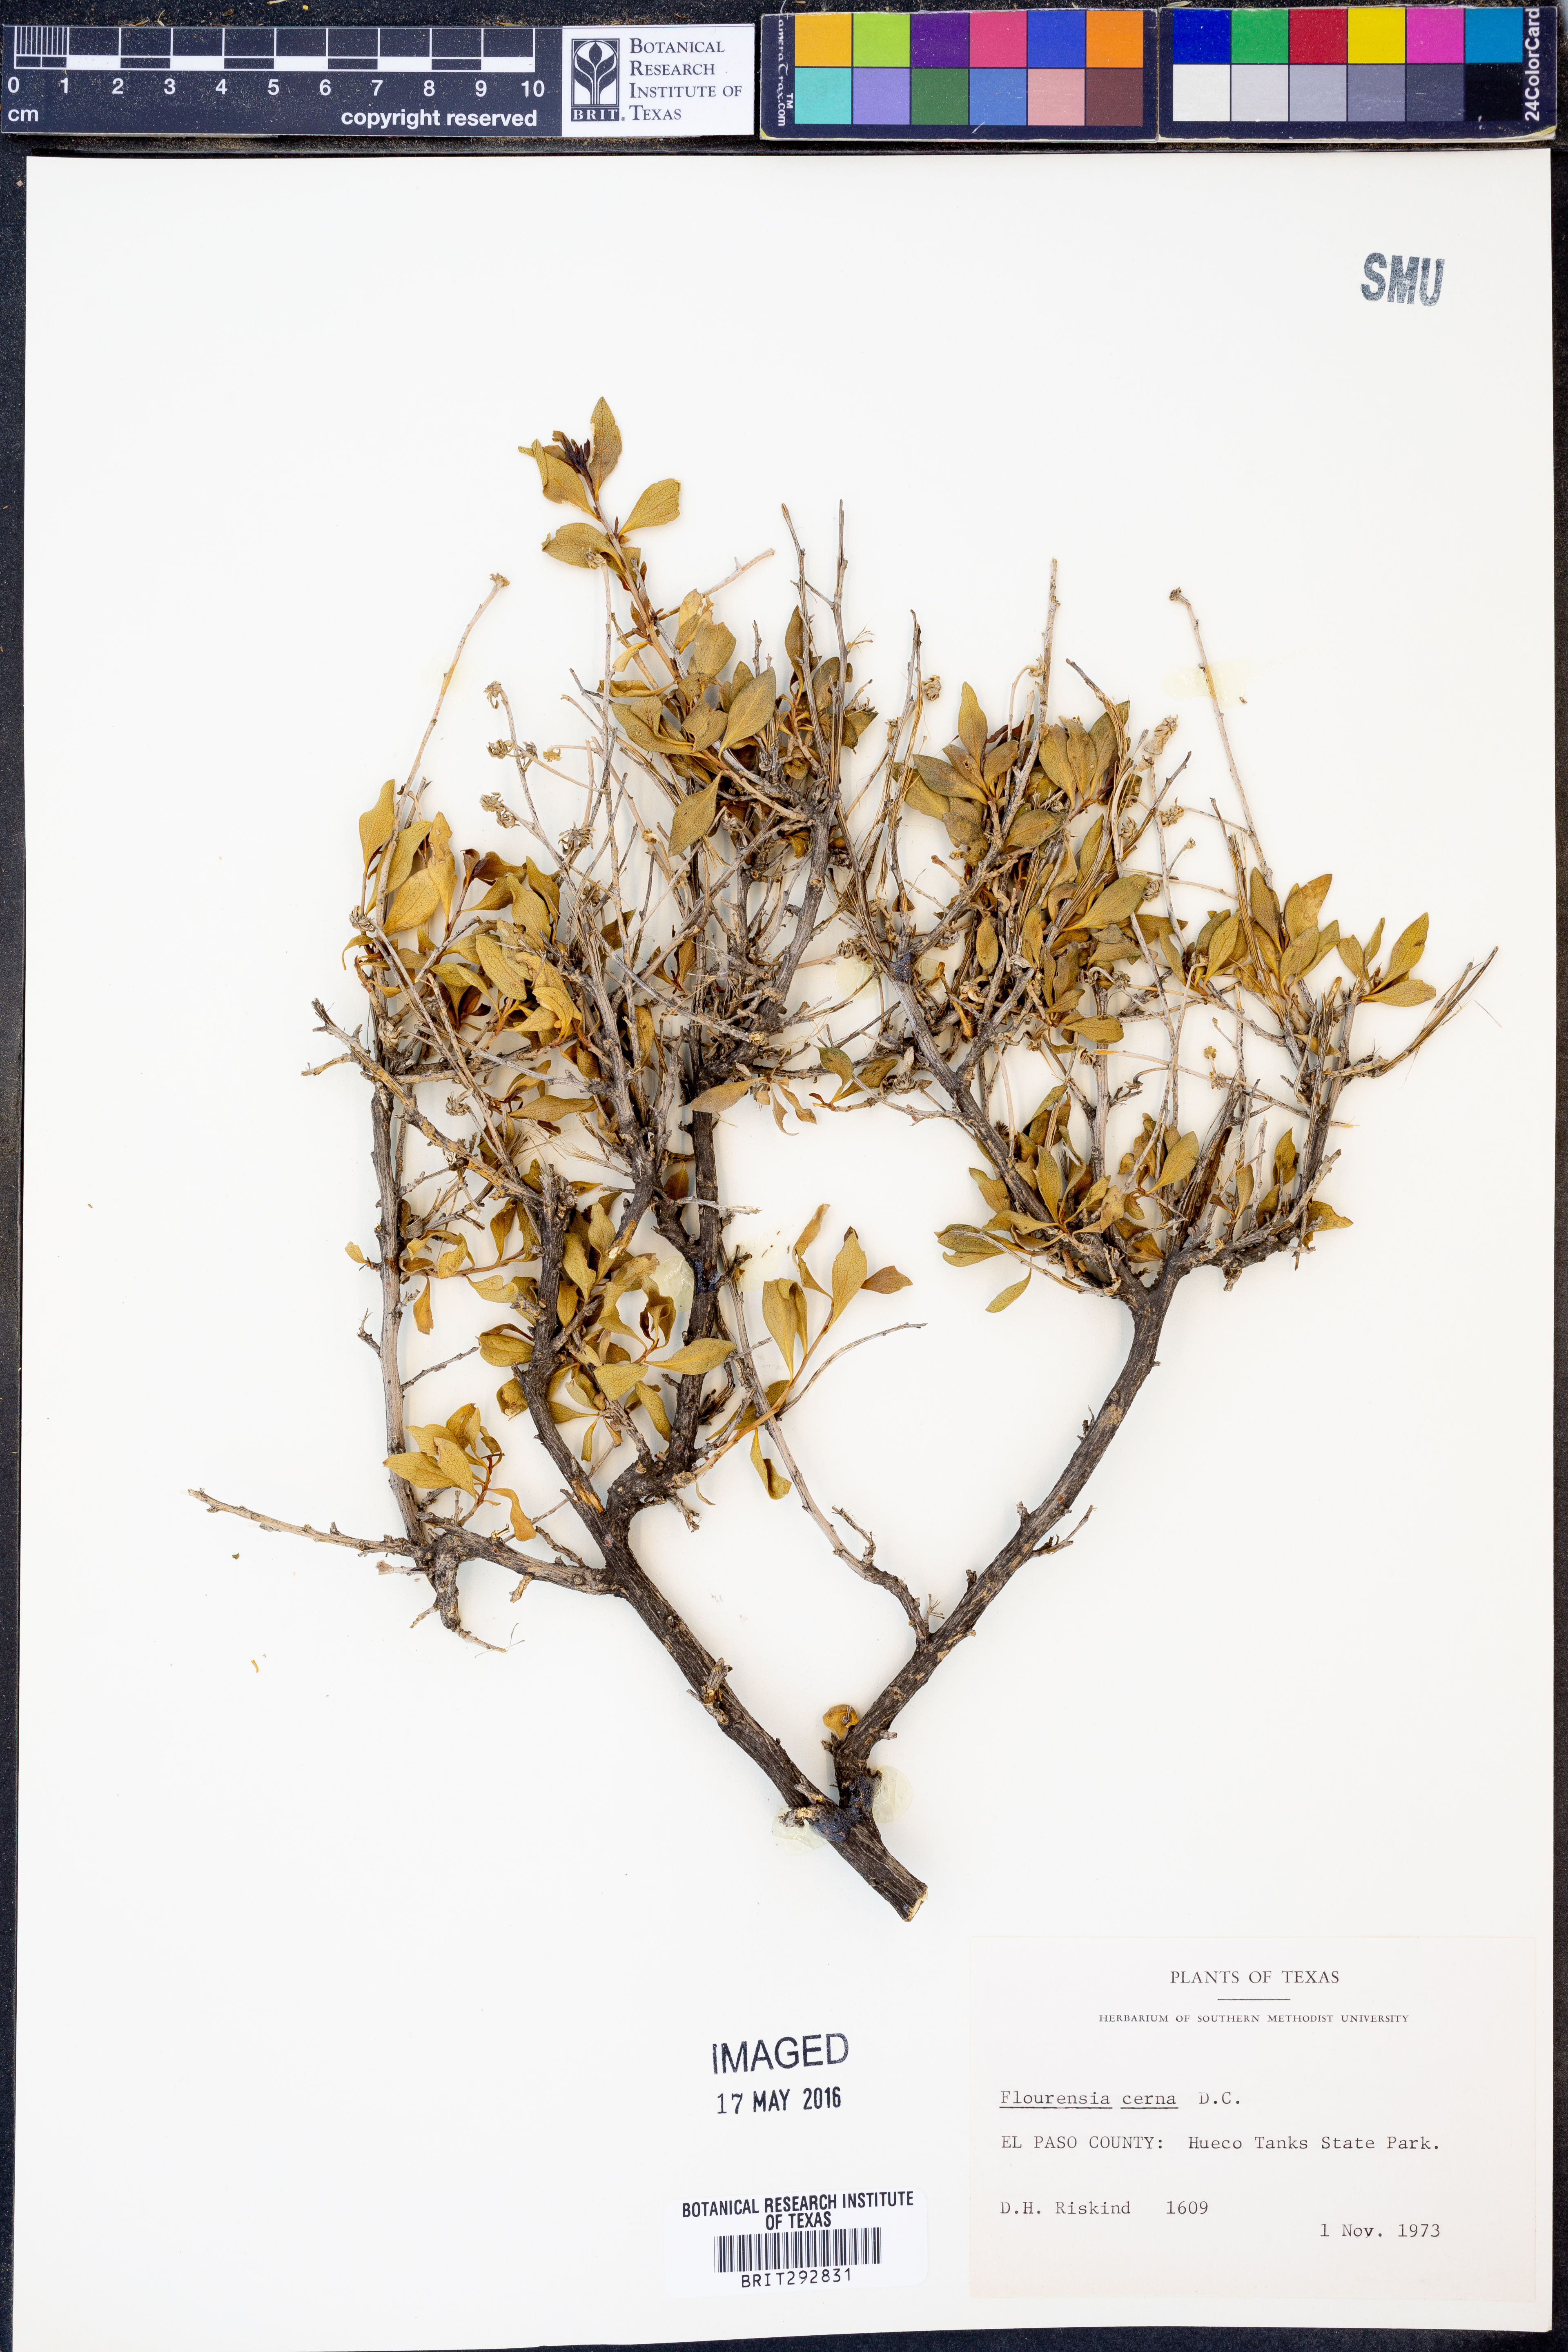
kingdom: Plantae
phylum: Tracheophyta
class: Magnoliopsida
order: Asterales
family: Asteraceae
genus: Flourensia
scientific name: Flourensia cernua
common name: Varnishbush
